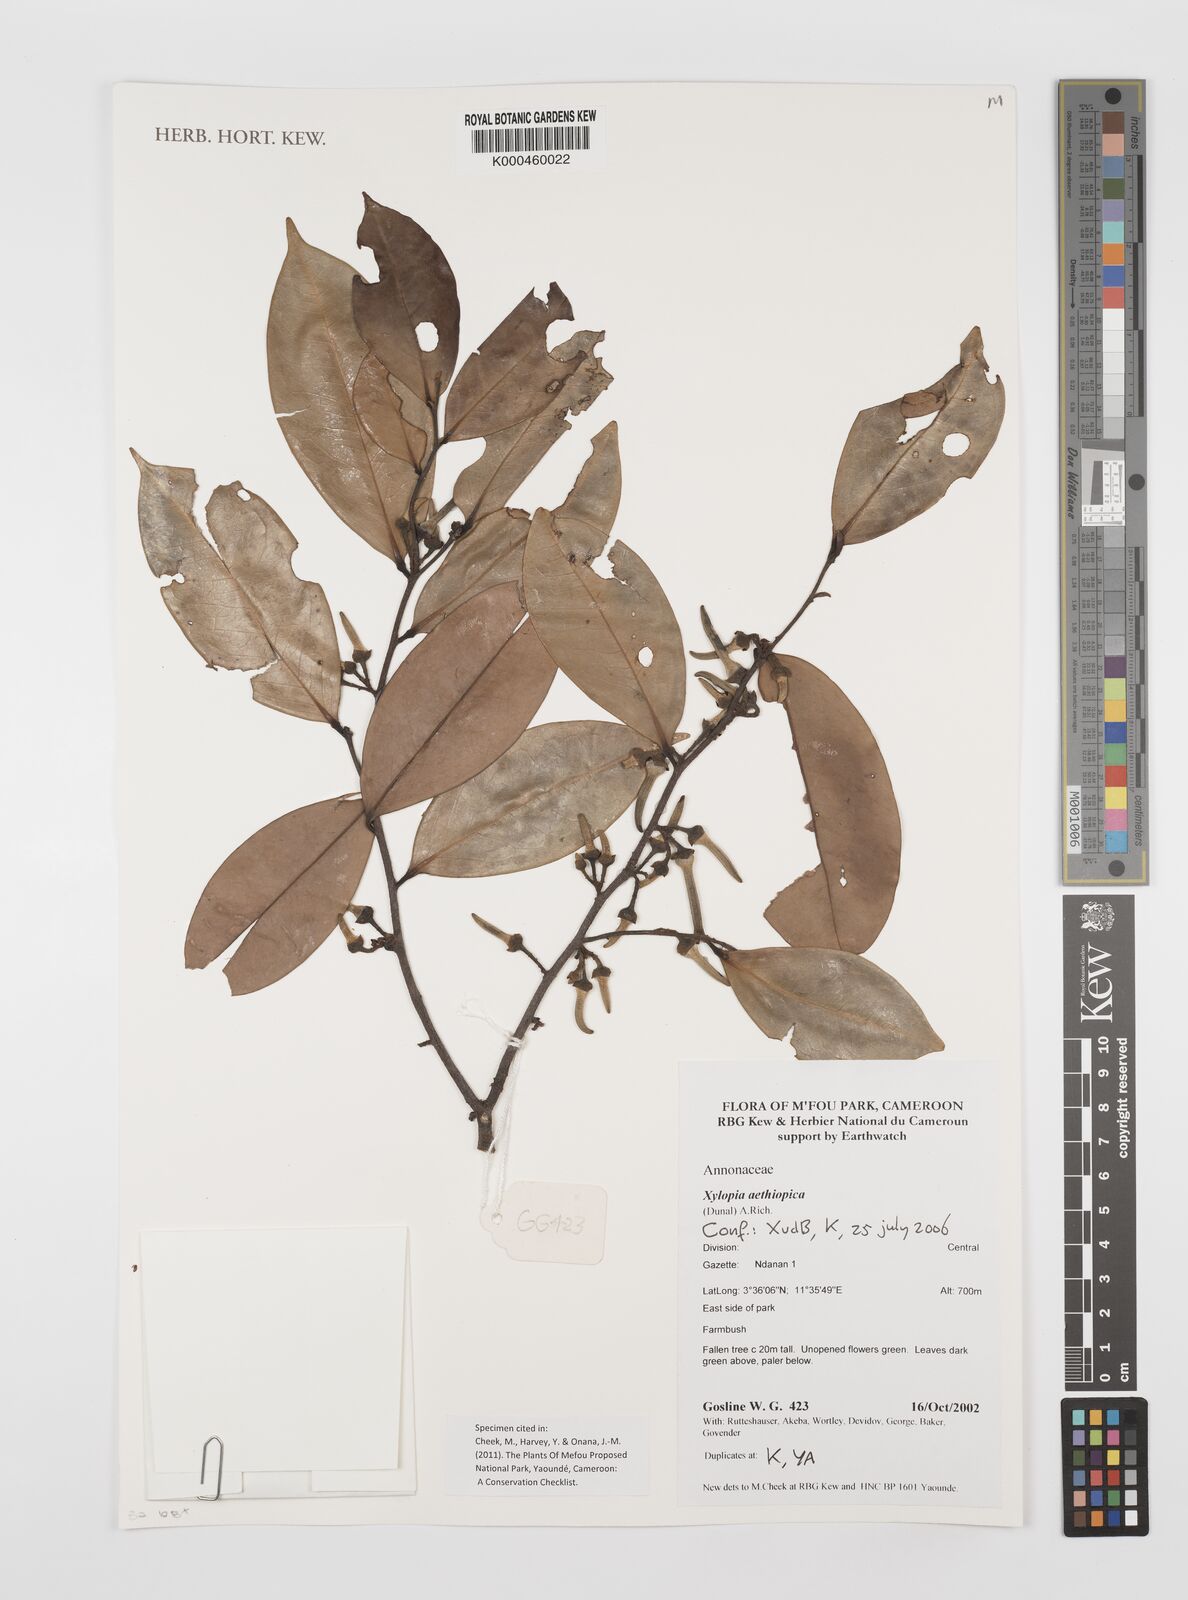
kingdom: Plantae
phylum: Tracheophyta
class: Magnoliopsida
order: Magnoliales
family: Annonaceae
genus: Xylopia
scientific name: Xylopia aethiopica
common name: Ethiopian-pepper
